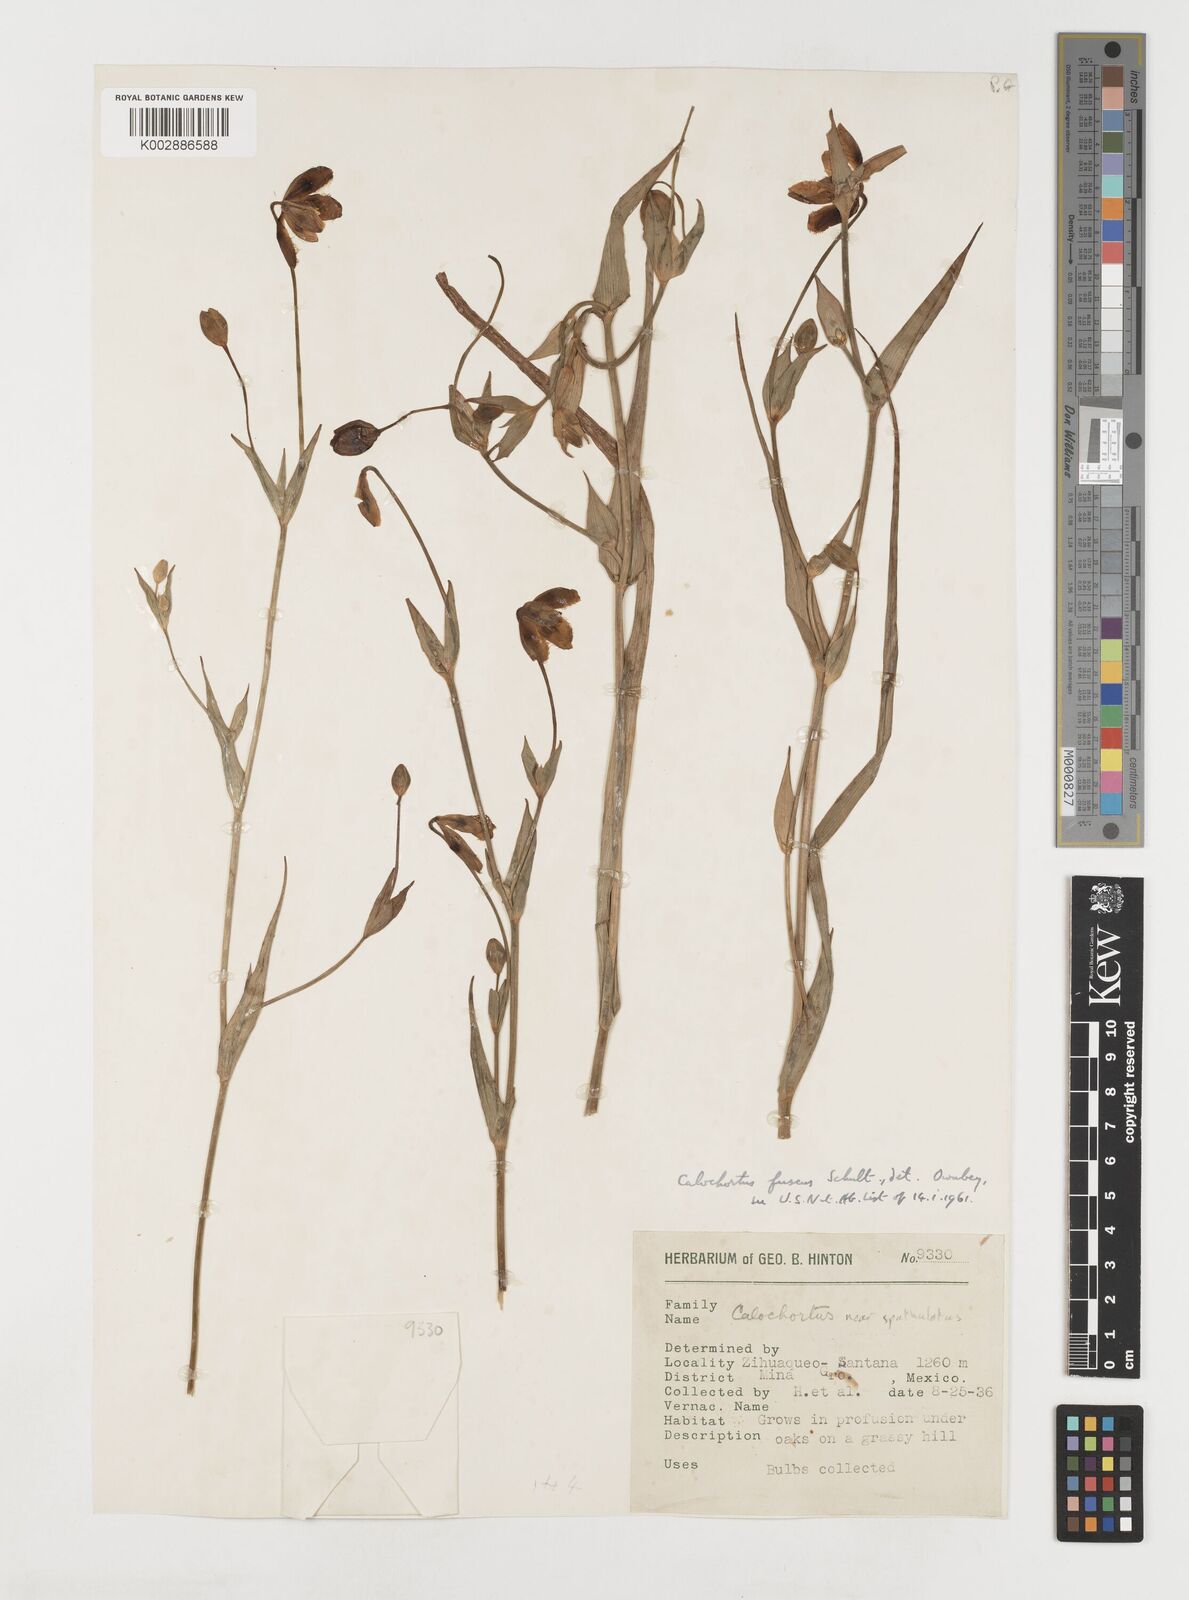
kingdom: Plantae
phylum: Tracheophyta
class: Liliopsida
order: Liliales
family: Liliaceae
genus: Calochortus
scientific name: Calochortus fuscus
